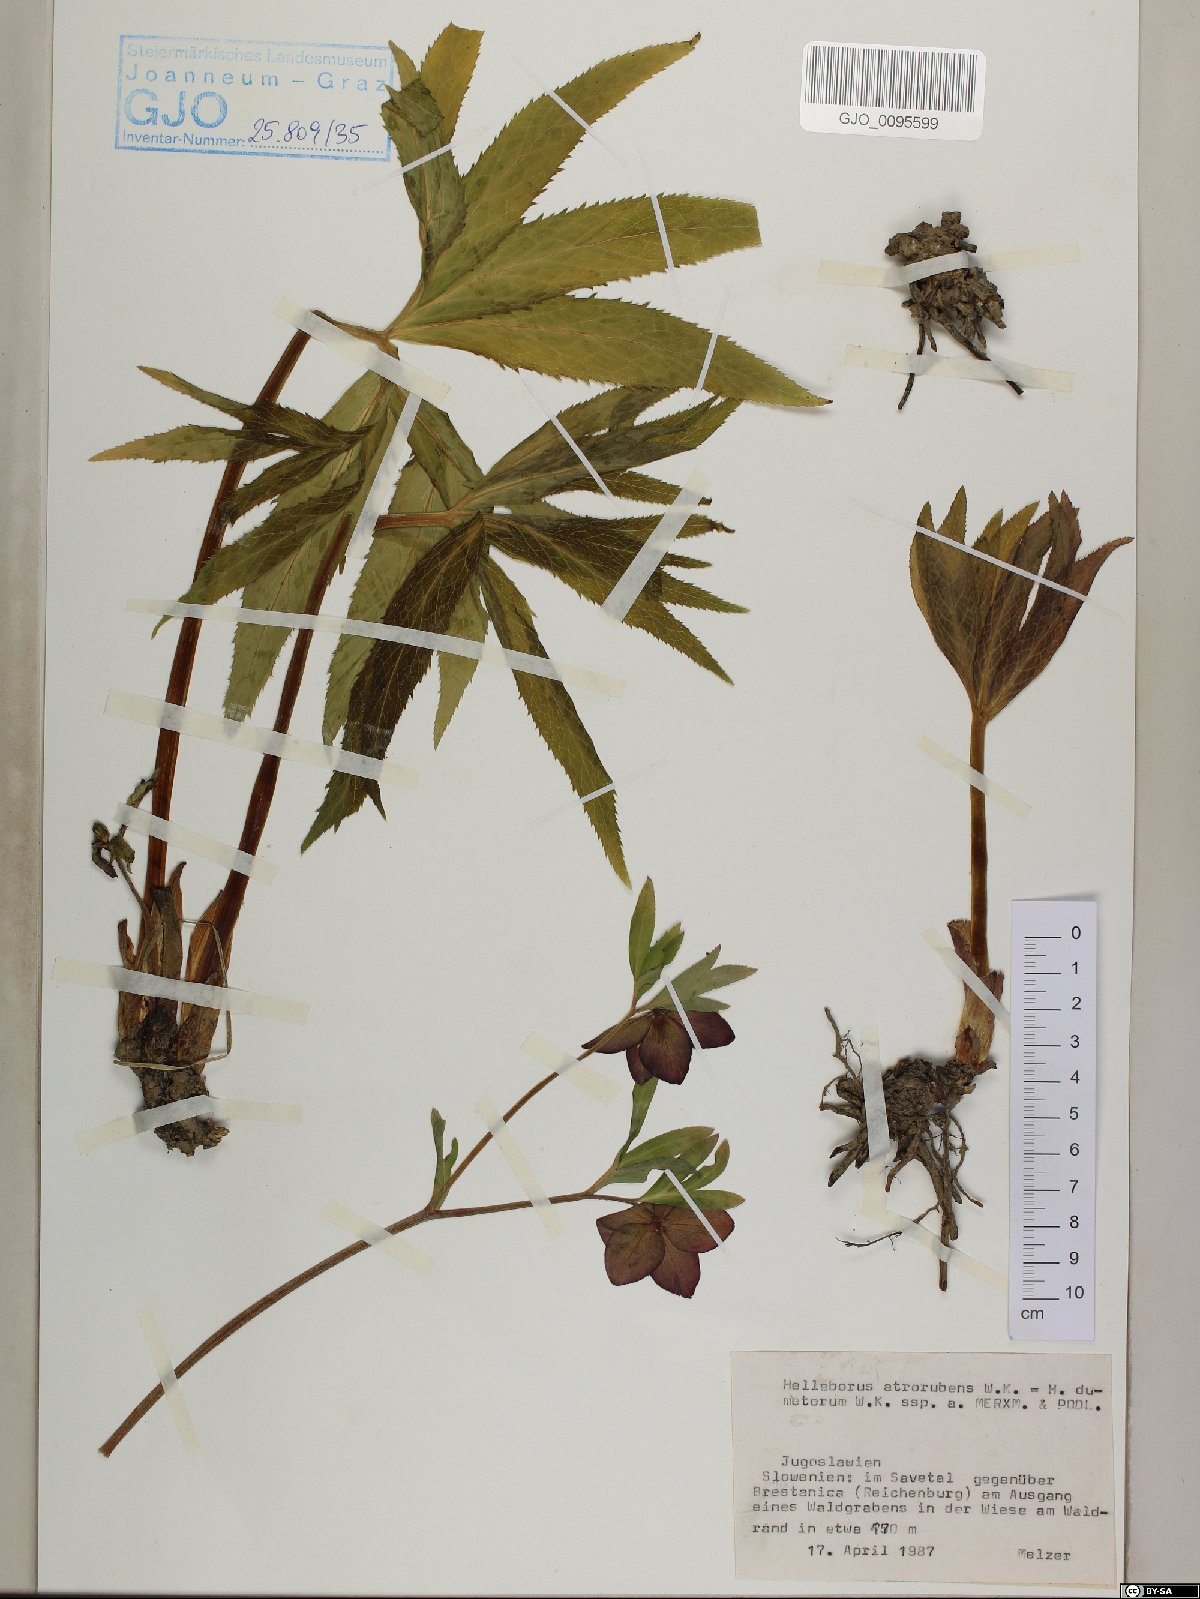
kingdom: Plantae
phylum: Tracheophyta
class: Magnoliopsida
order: Ranunculales
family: Ranunculaceae
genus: Helleborus
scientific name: Helleborus dumetorum
